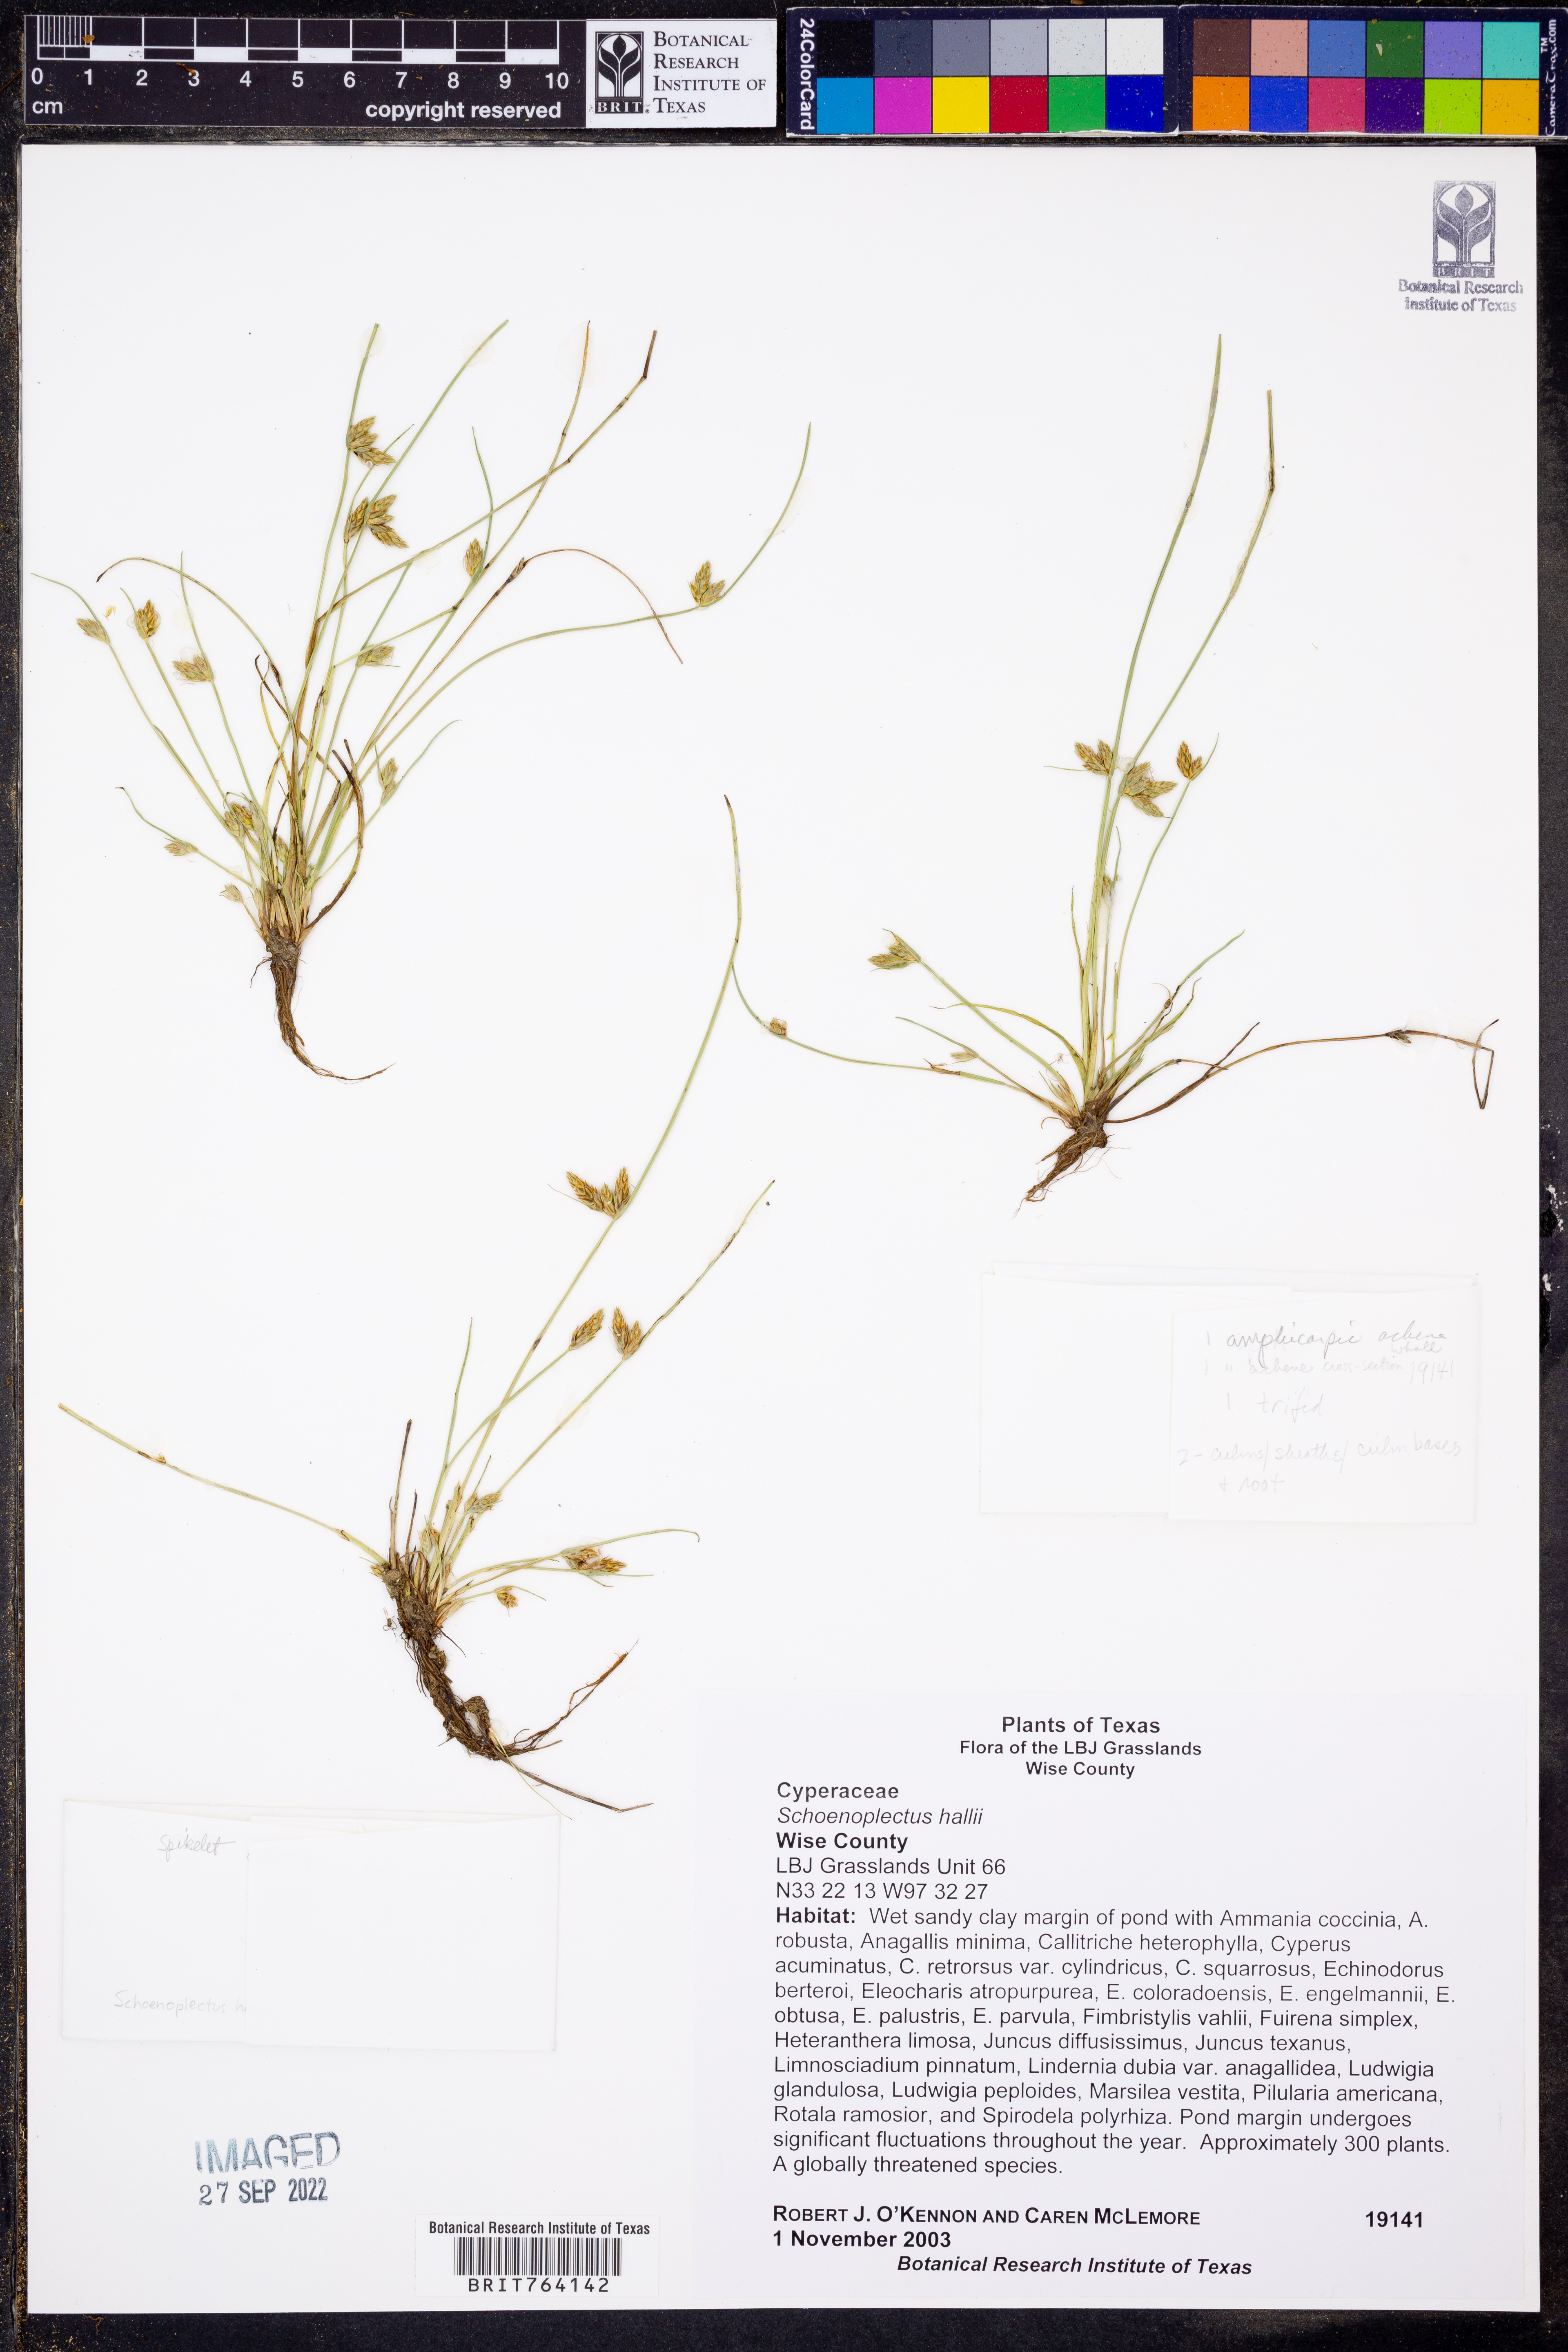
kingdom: Plantae
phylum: Tracheophyta
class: Liliopsida
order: Poales
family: Cyperaceae
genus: Schoenoplectiella
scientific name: Schoenoplectiella hallii
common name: Hall's bullrush
